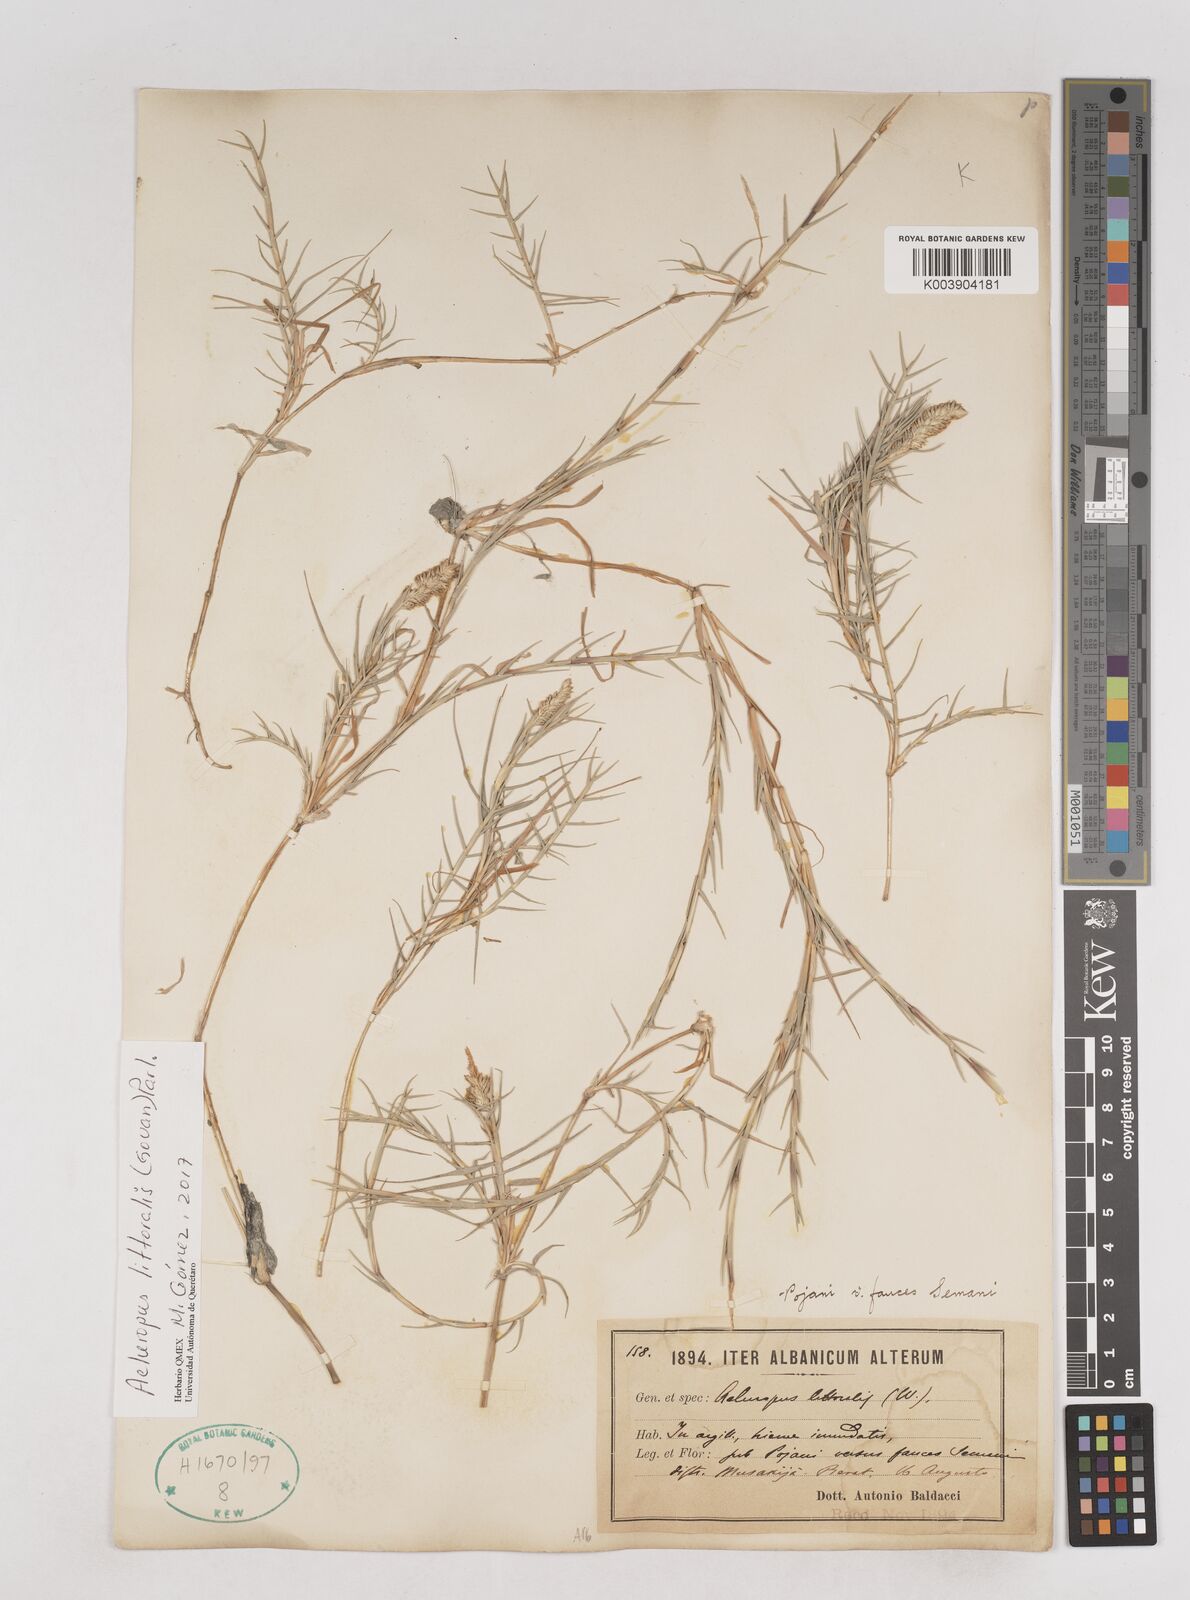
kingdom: Plantae
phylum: Tracheophyta
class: Liliopsida
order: Poales
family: Poaceae
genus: Aeluropus
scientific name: Aeluropus littoralis
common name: Indian walnut
